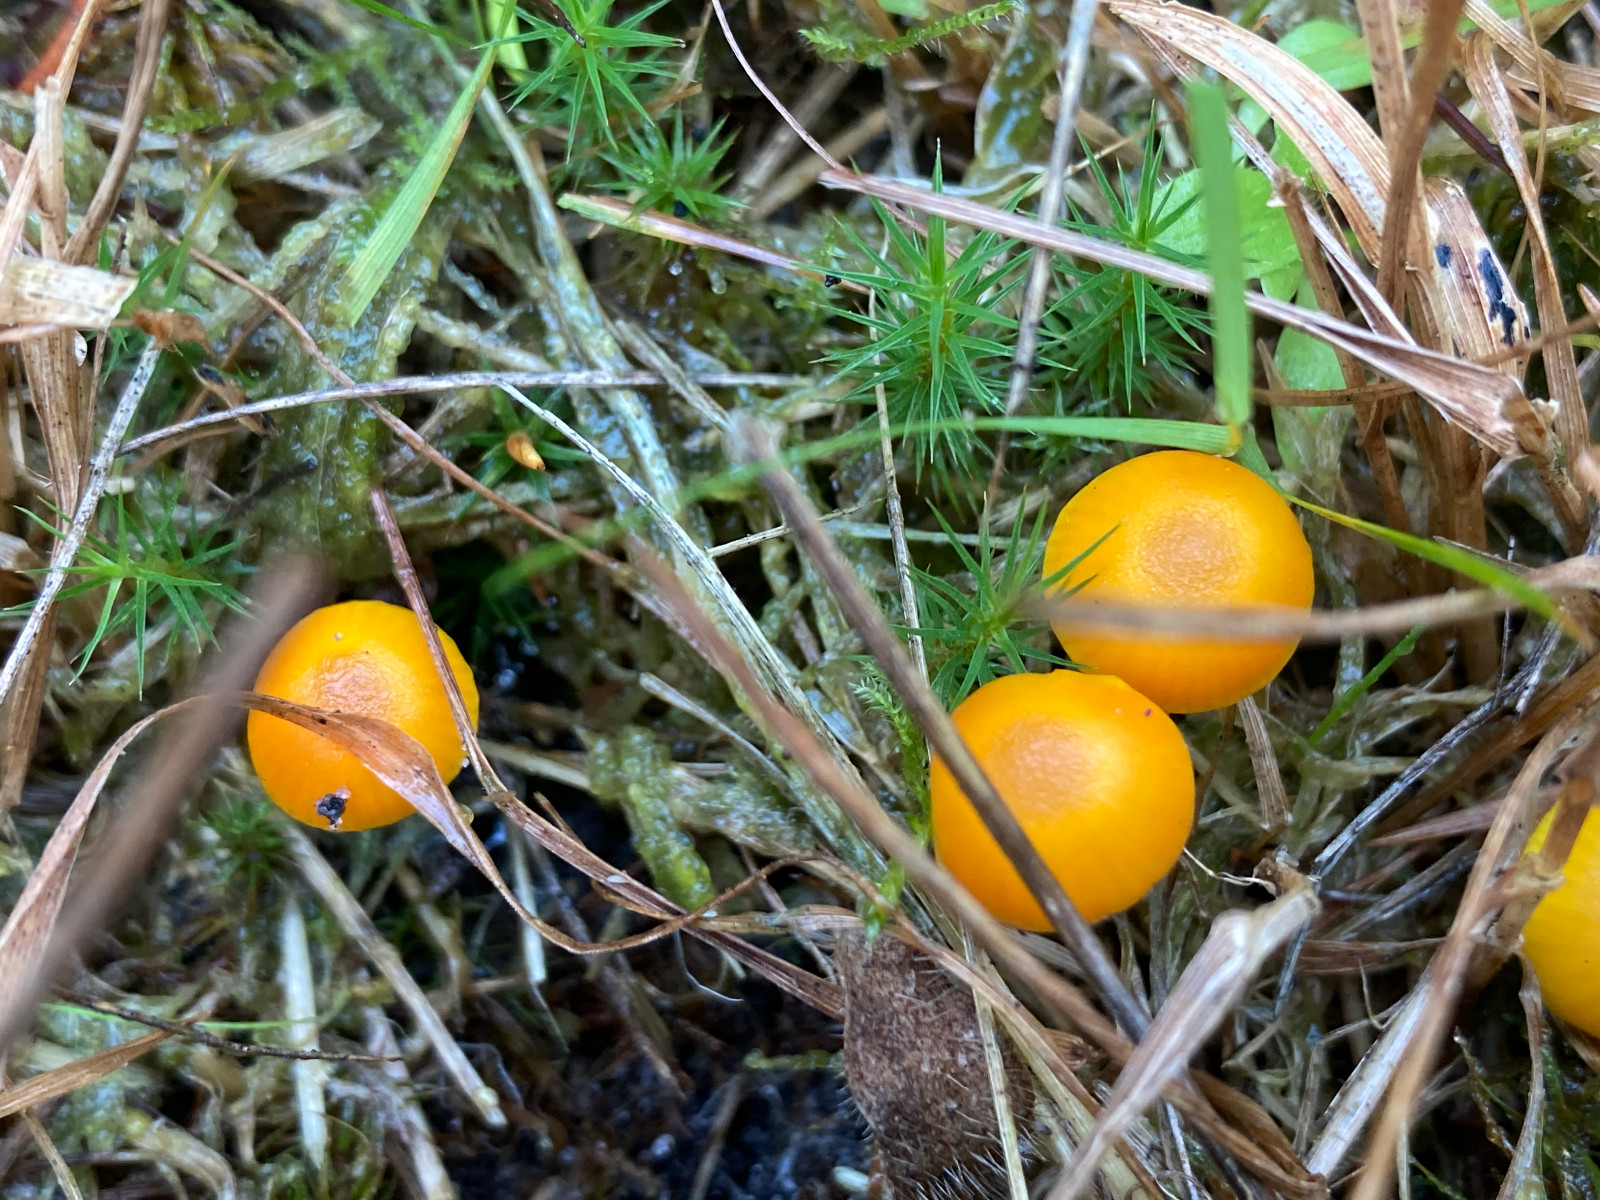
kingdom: Fungi
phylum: Basidiomycota
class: Agaricomycetes
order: Agaricales
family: Hygrophoraceae
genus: Hygrocybe
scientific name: Hygrocybe ceracea
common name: voksgul vokshat
